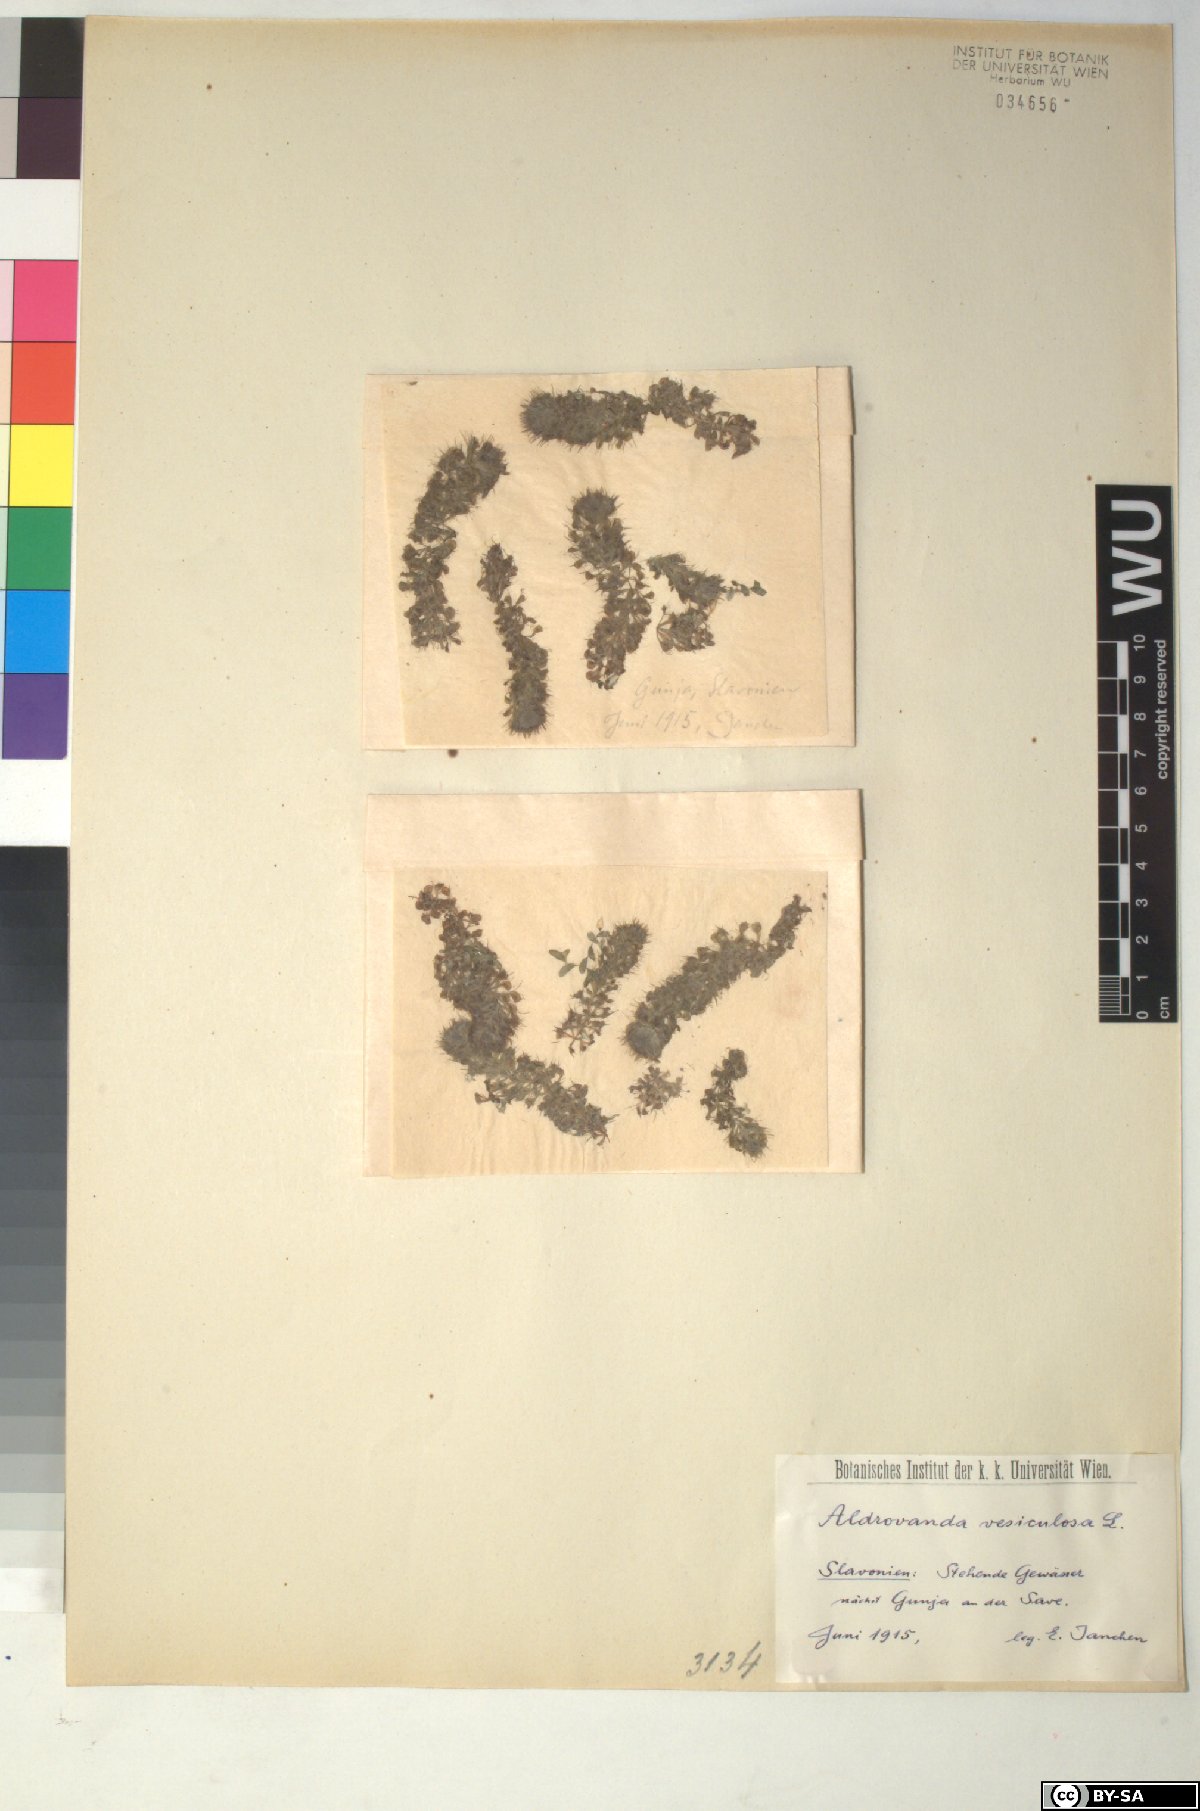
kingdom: Plantae
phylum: Tracheophyta
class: Magnoliopsida
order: Caryophyllales
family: Droseraceae
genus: Aldrovanda
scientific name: Aldrovanda vesiculosa
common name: Waterwheel plant
